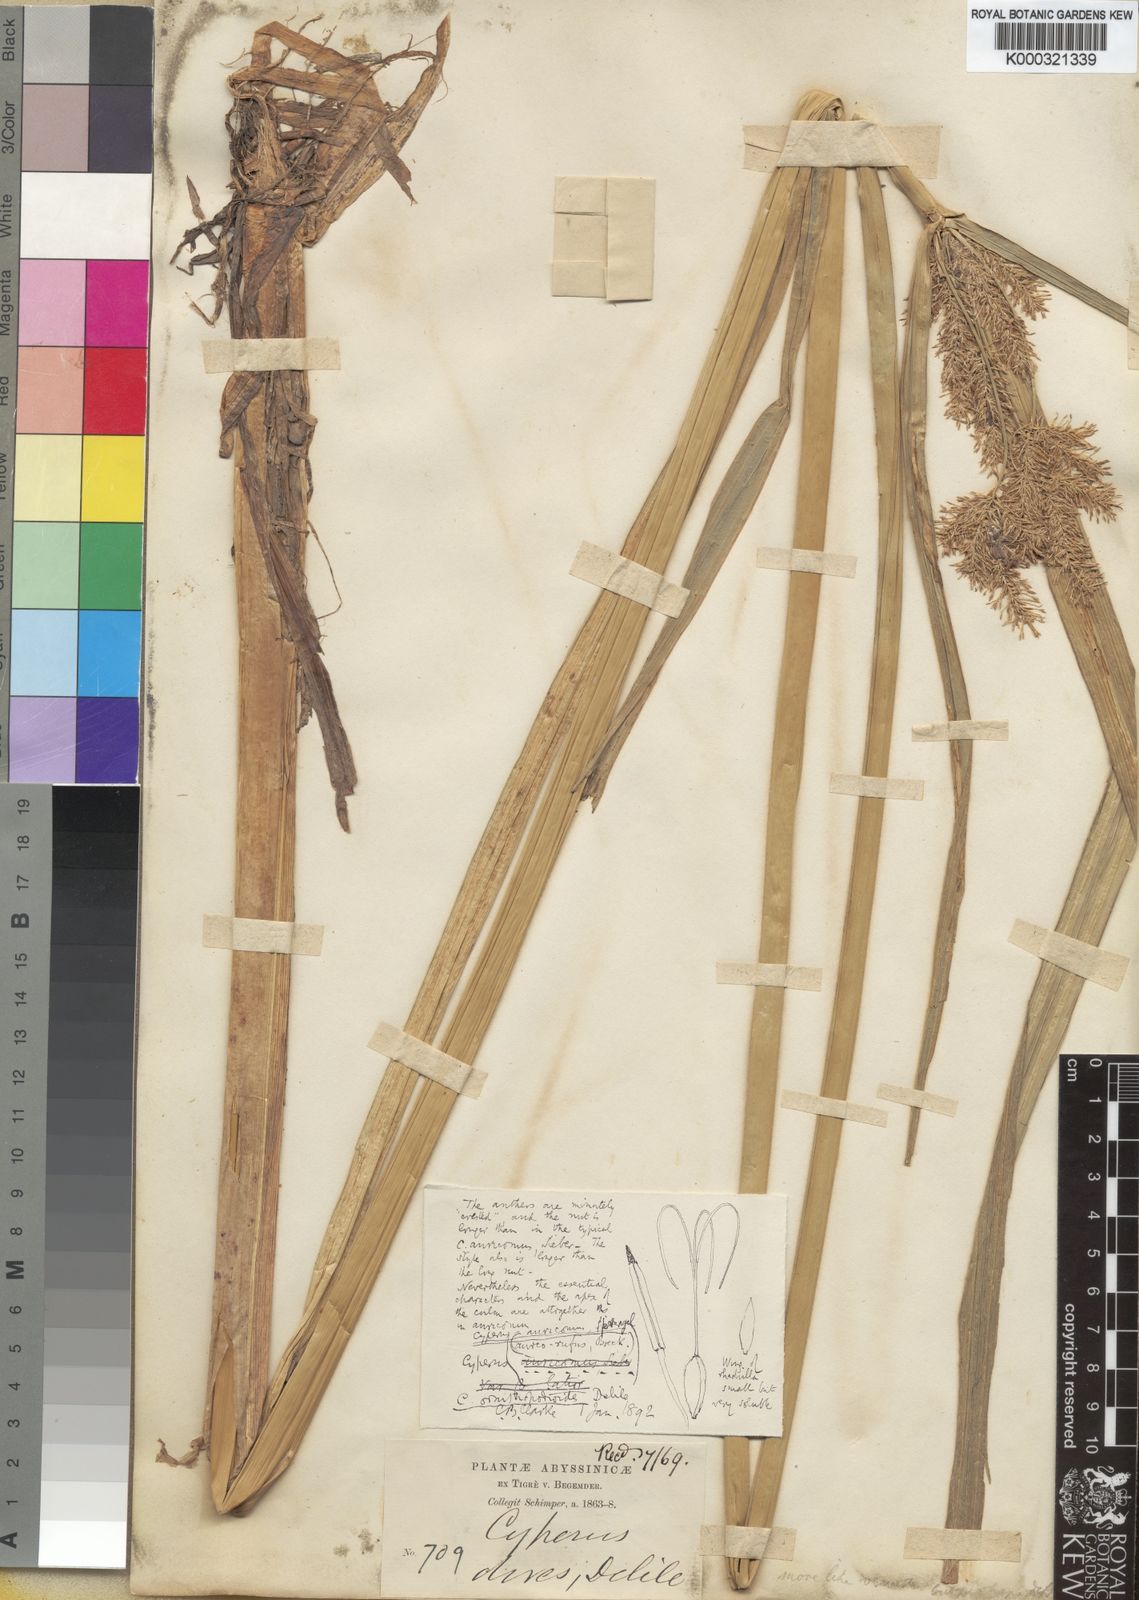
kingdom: Plantae
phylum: Tracheophyta
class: Liliopsida
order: Poales
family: Cyperaceae
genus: Cyperus
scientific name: Cyperus digitatus
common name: Finger flatsedge
